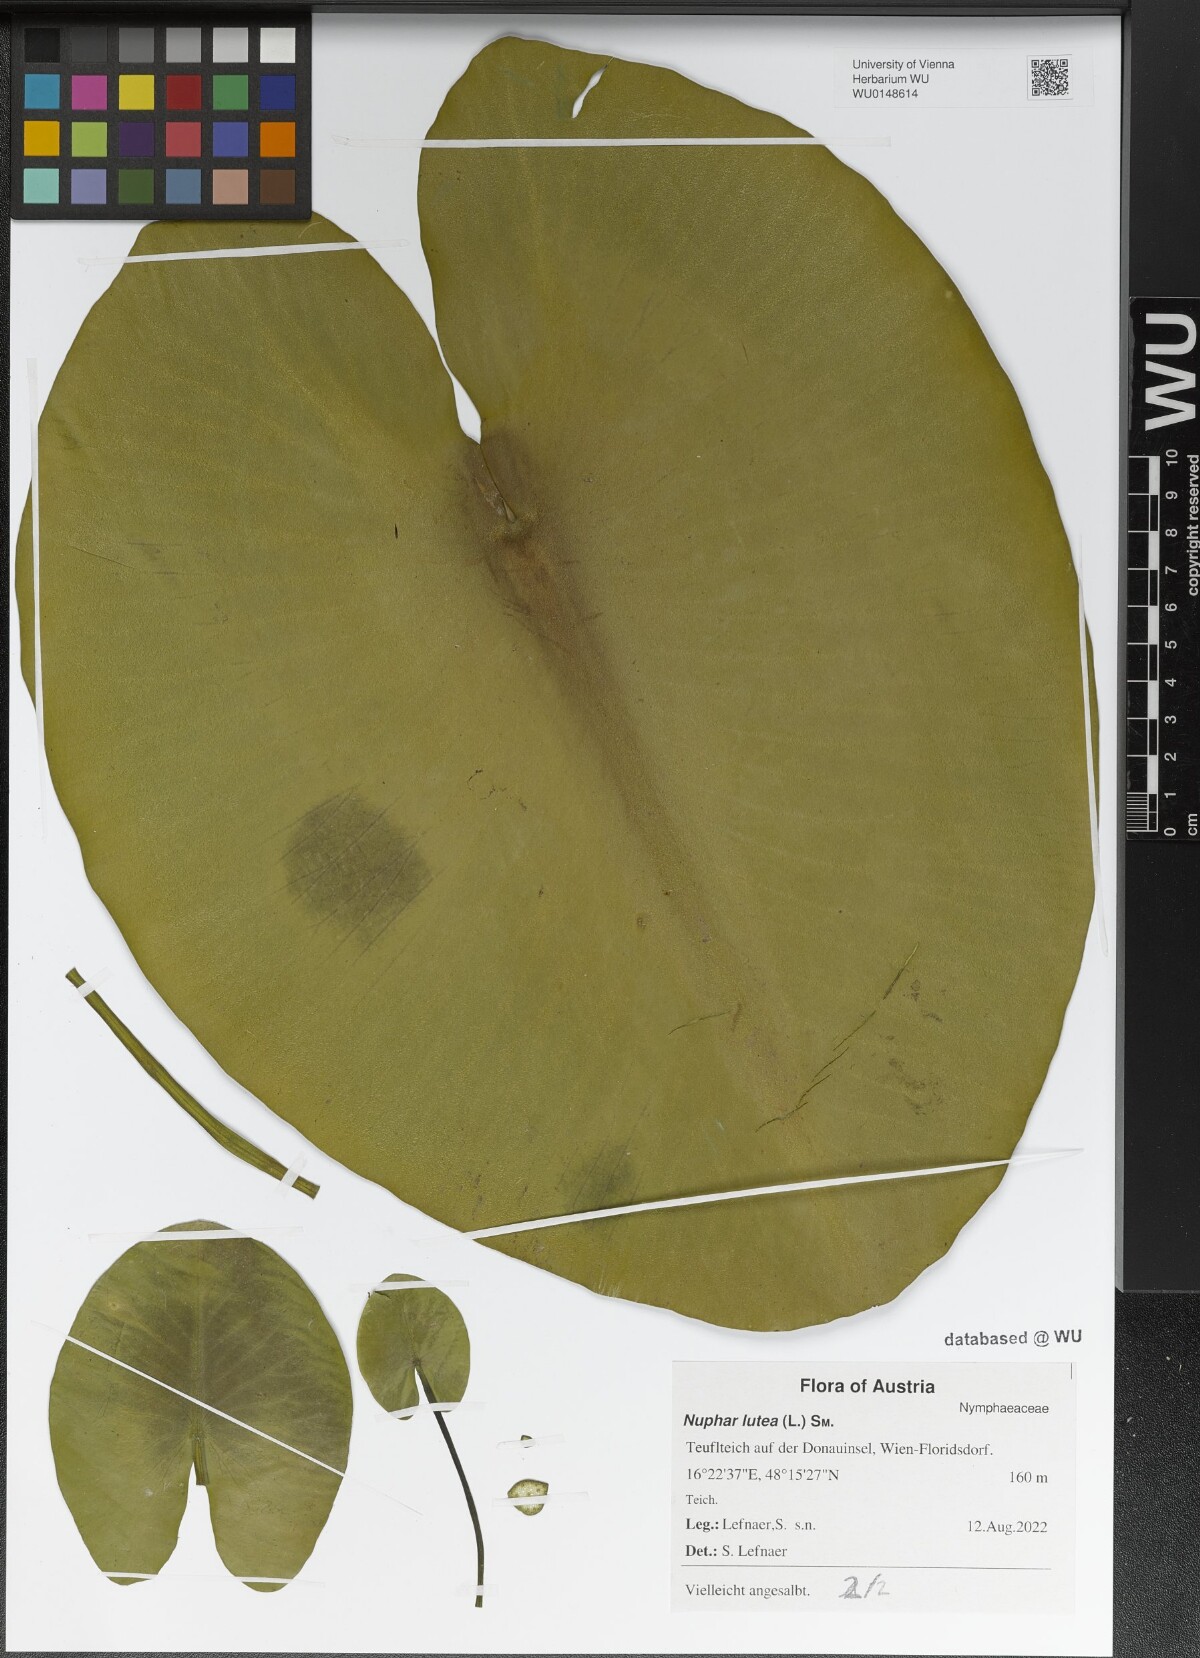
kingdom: Plantae
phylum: Tracheophyta
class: Magnoliopsida
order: Nymphaeales
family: Nymphaeaceae
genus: Nuphar
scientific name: Nuphar lutea
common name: Yellow water-lily
